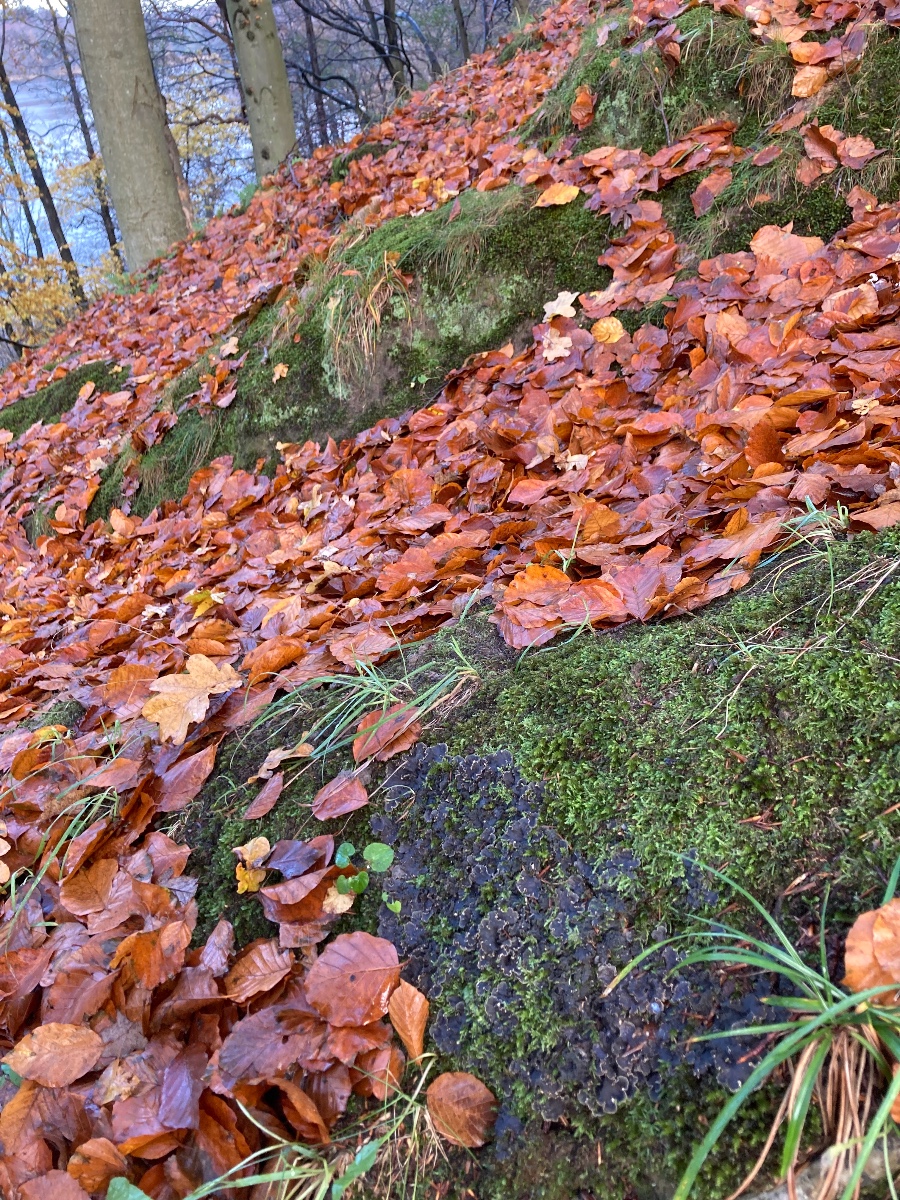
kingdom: Fungi
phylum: Ascomycota
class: Lecanoromycetes
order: Peltigerales
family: Peltigeraceae
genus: Peltigera
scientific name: Peltigera praetextata
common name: kruset skjoldlav
